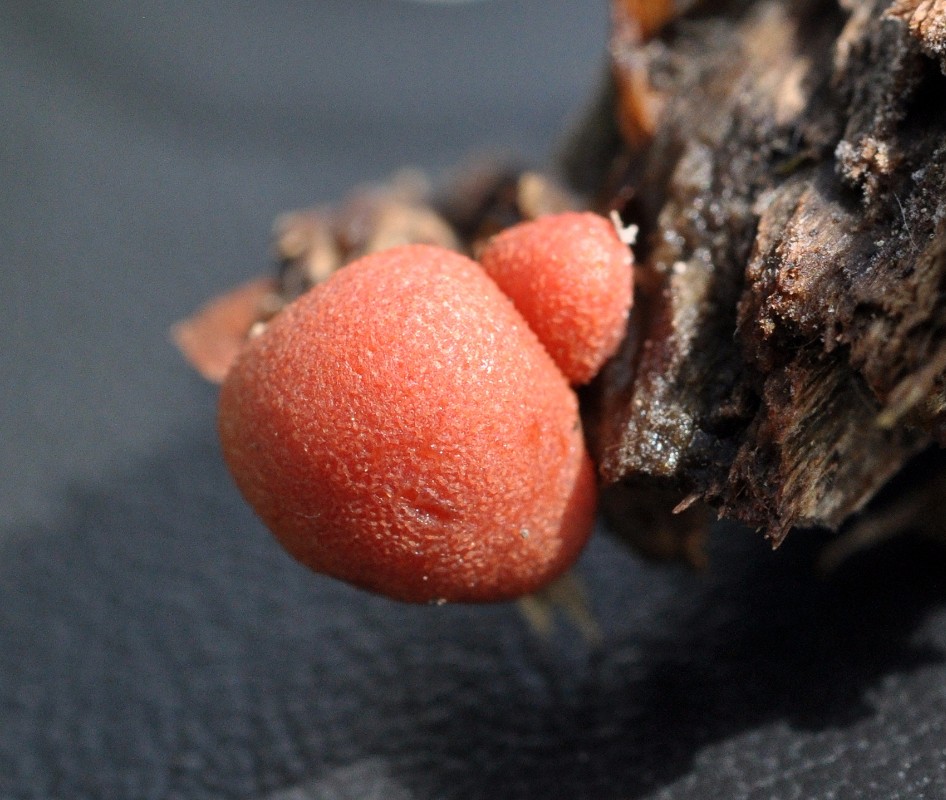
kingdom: Protozoa
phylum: Mycetozoa
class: Myxomycetes
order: Cribrariales
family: Tubiferaceae
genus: Lycogala
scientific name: Lycogala epidendrum
